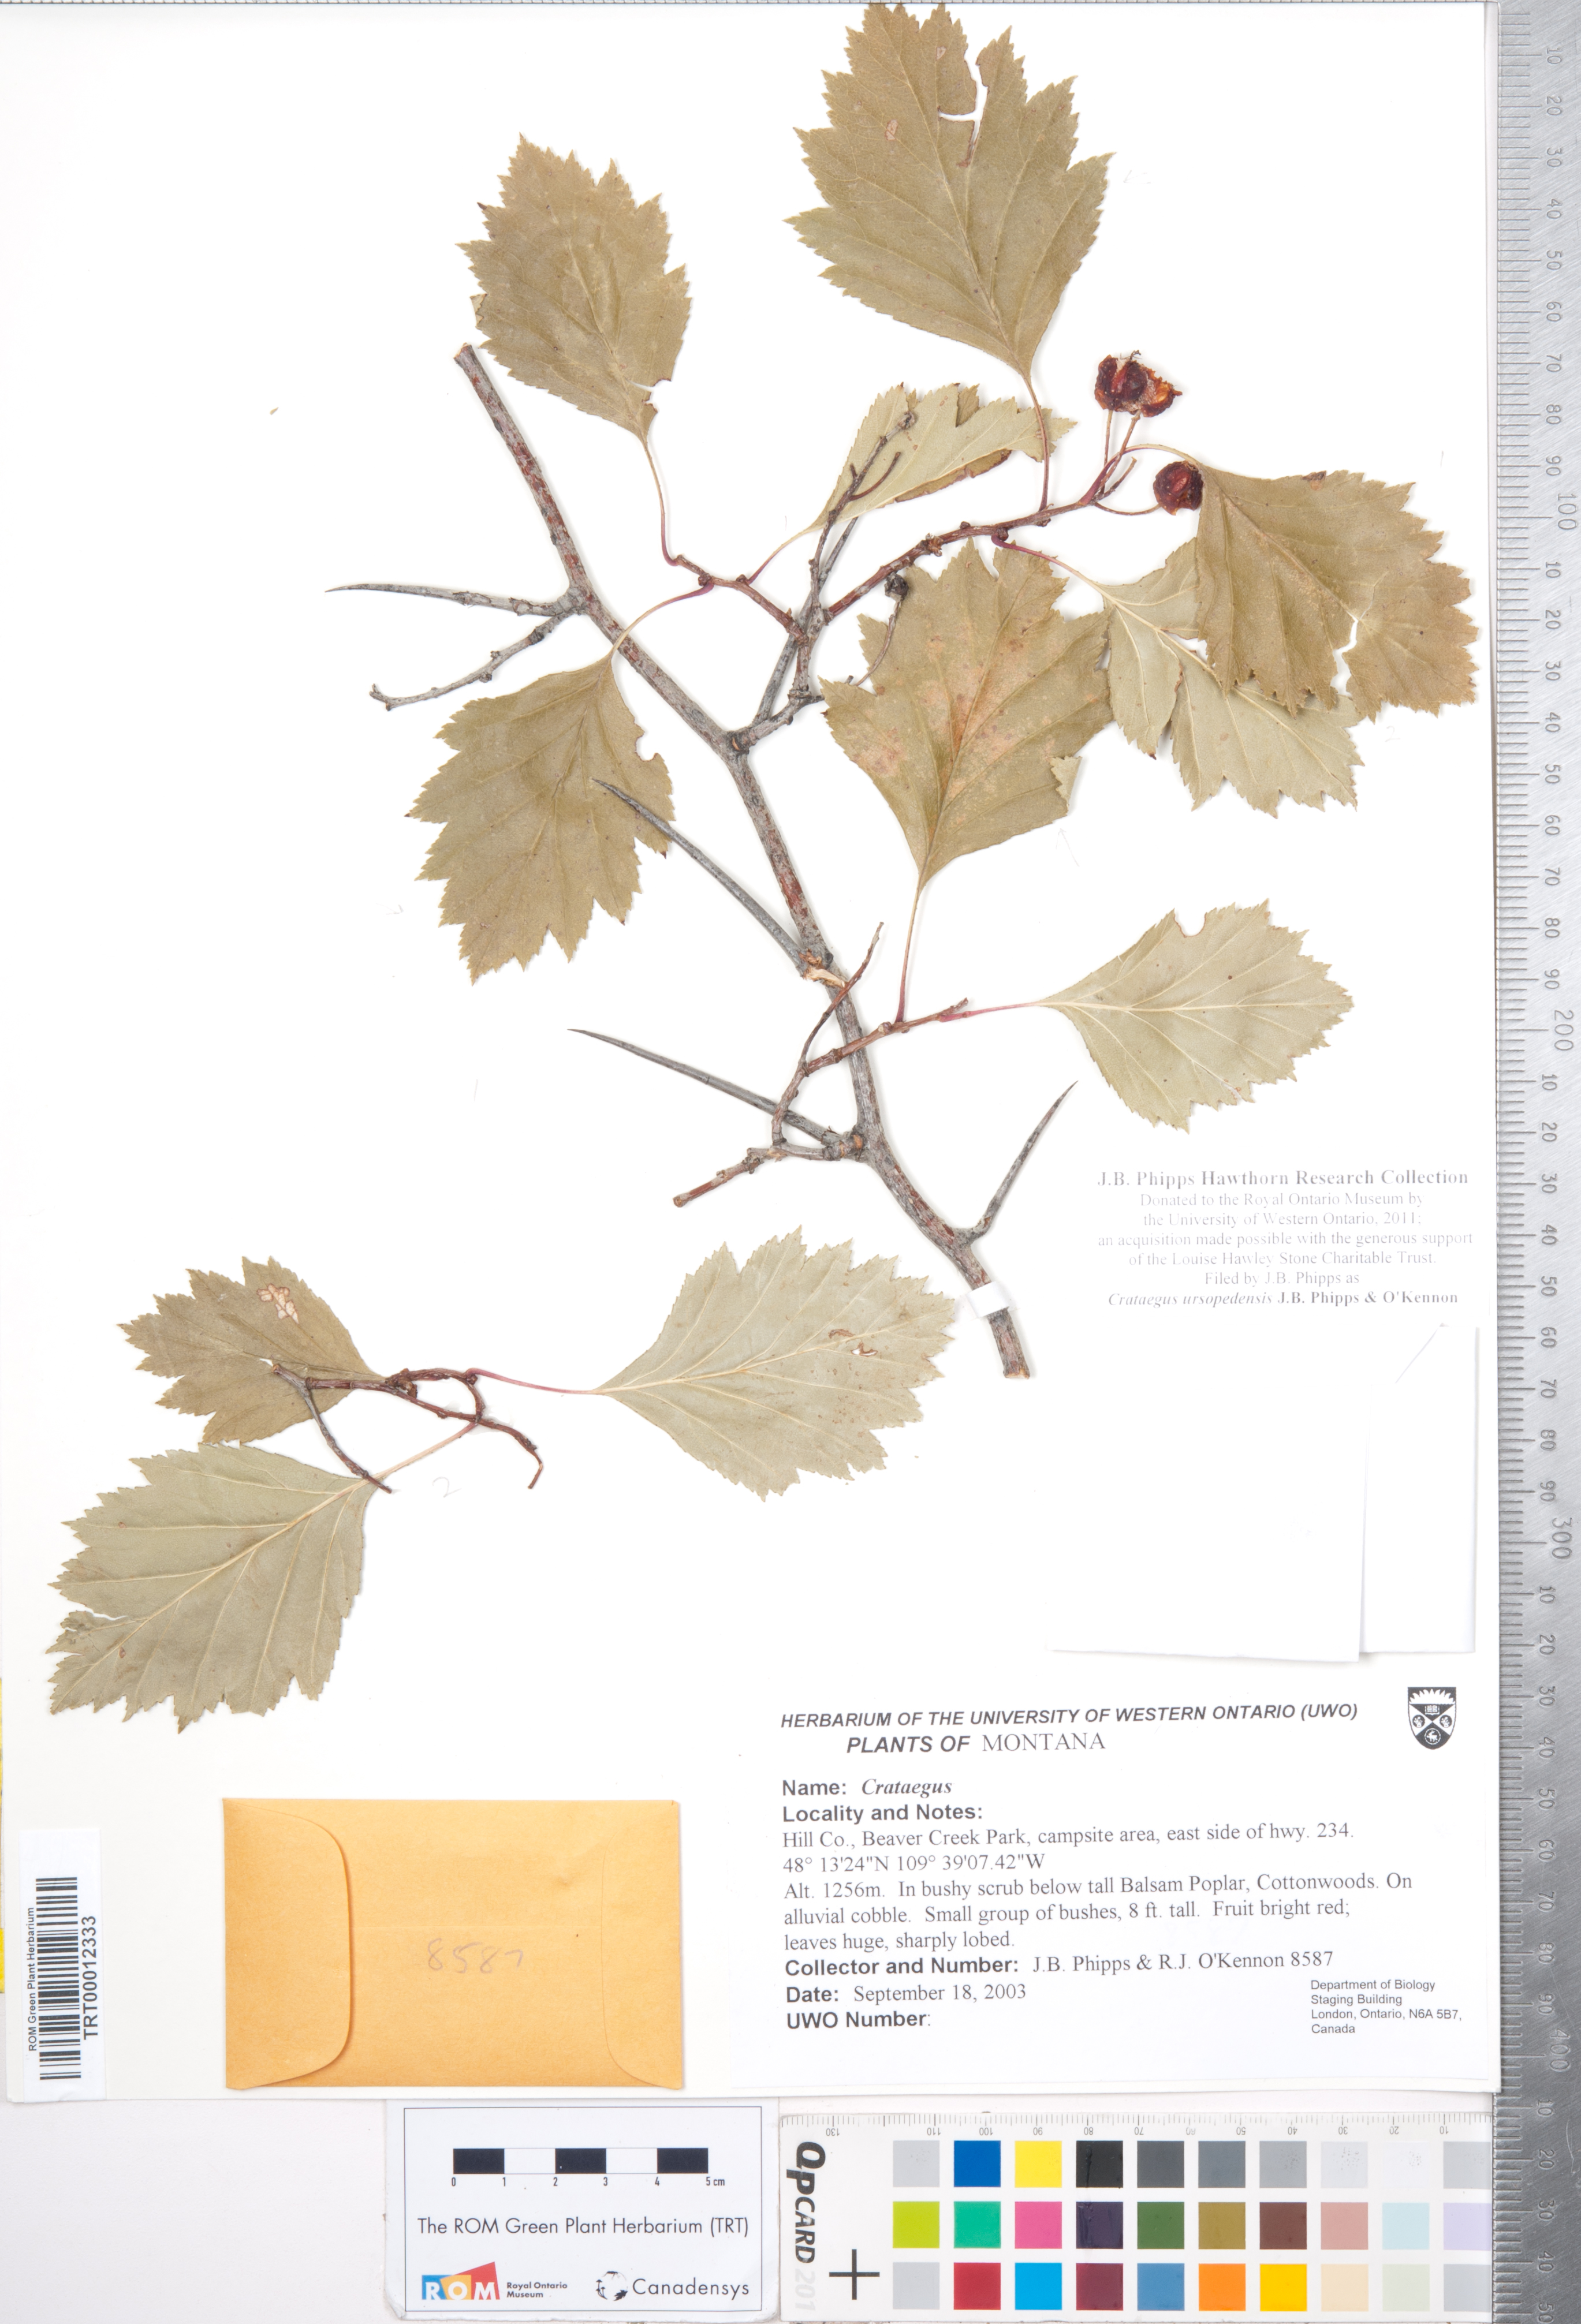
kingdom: Plantae
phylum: Tracheophyta
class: Magnoliopsida
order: Rosales
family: Rosaceae
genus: Crataegus
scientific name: Crataegus ursopedensis
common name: Bears paw hawthorn
